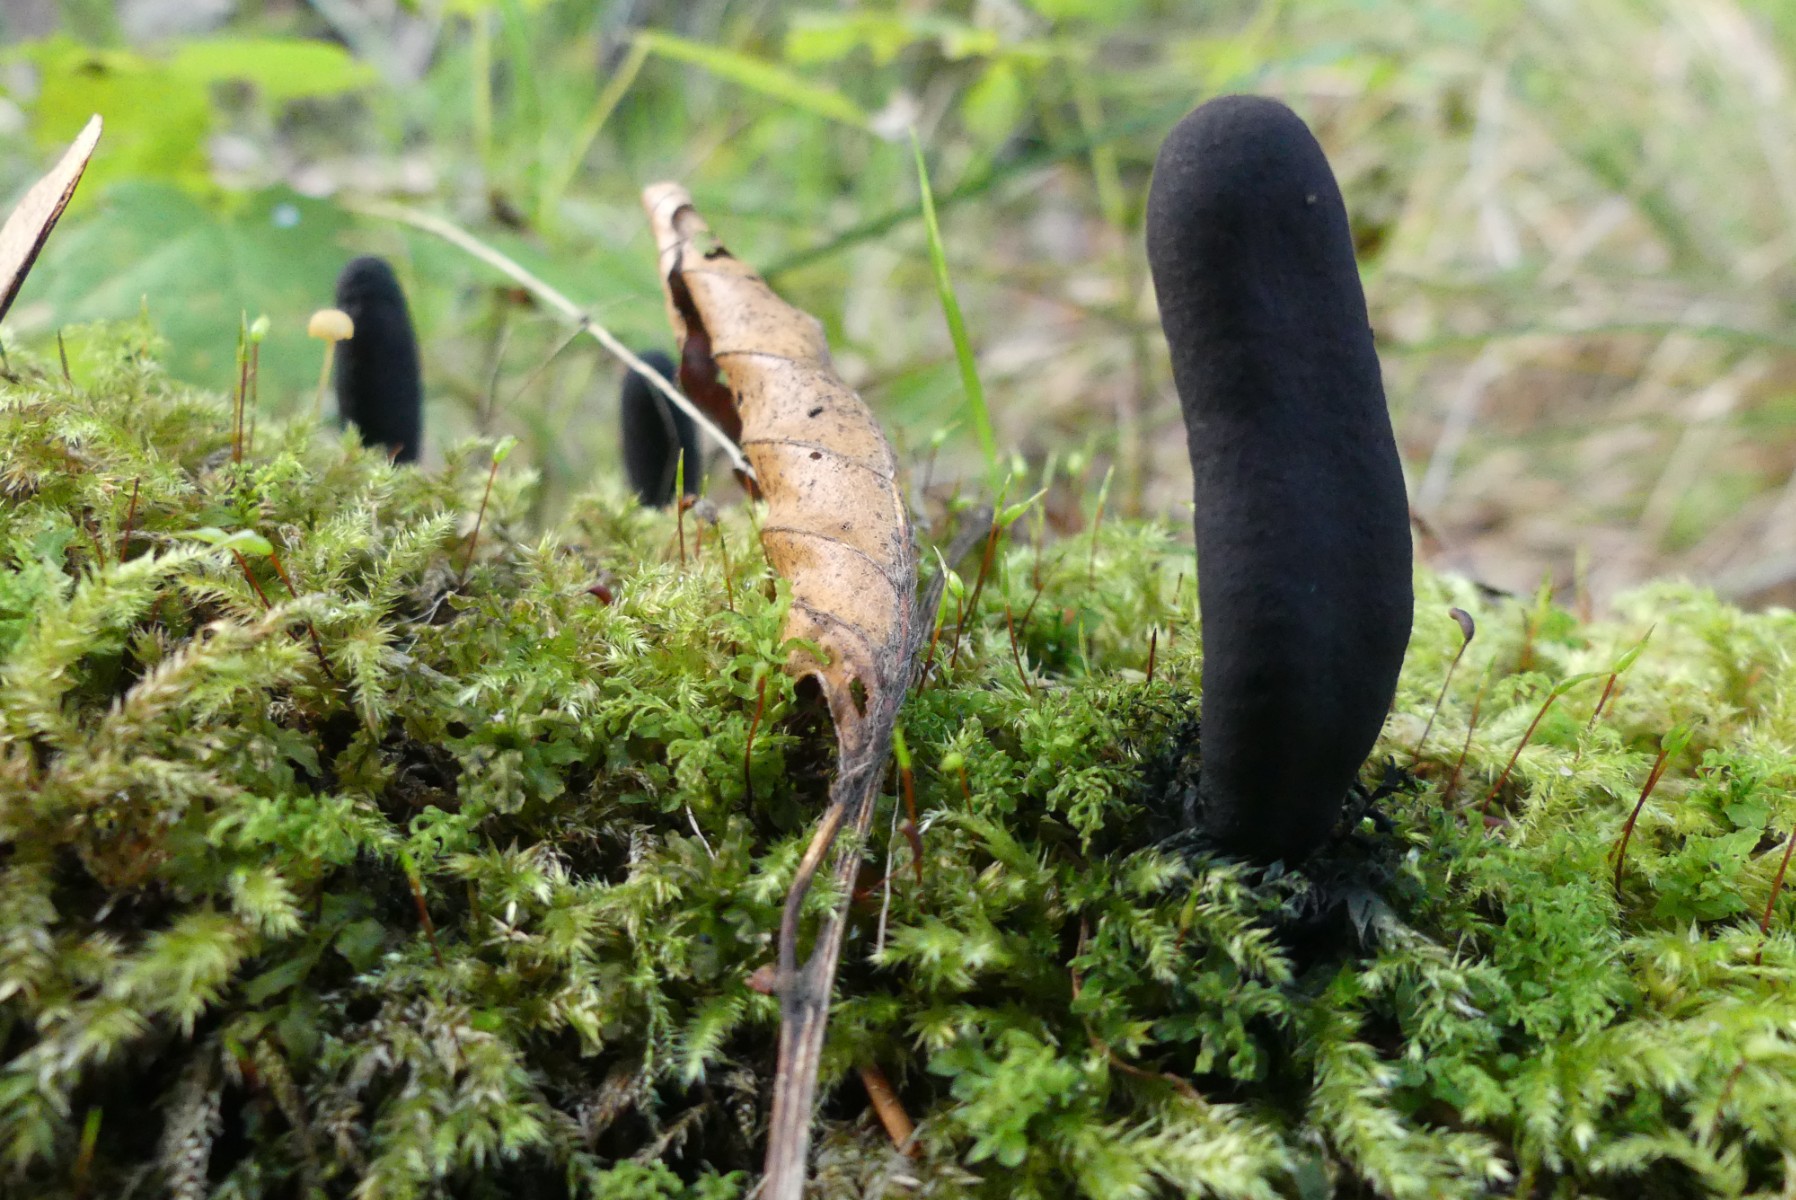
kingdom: Fungi
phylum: Ascomycota
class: Sordariomycetes
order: Xylariales
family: Xylariaceae
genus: Xylaria
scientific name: Xylaria longipes
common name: slank stødsvamp
